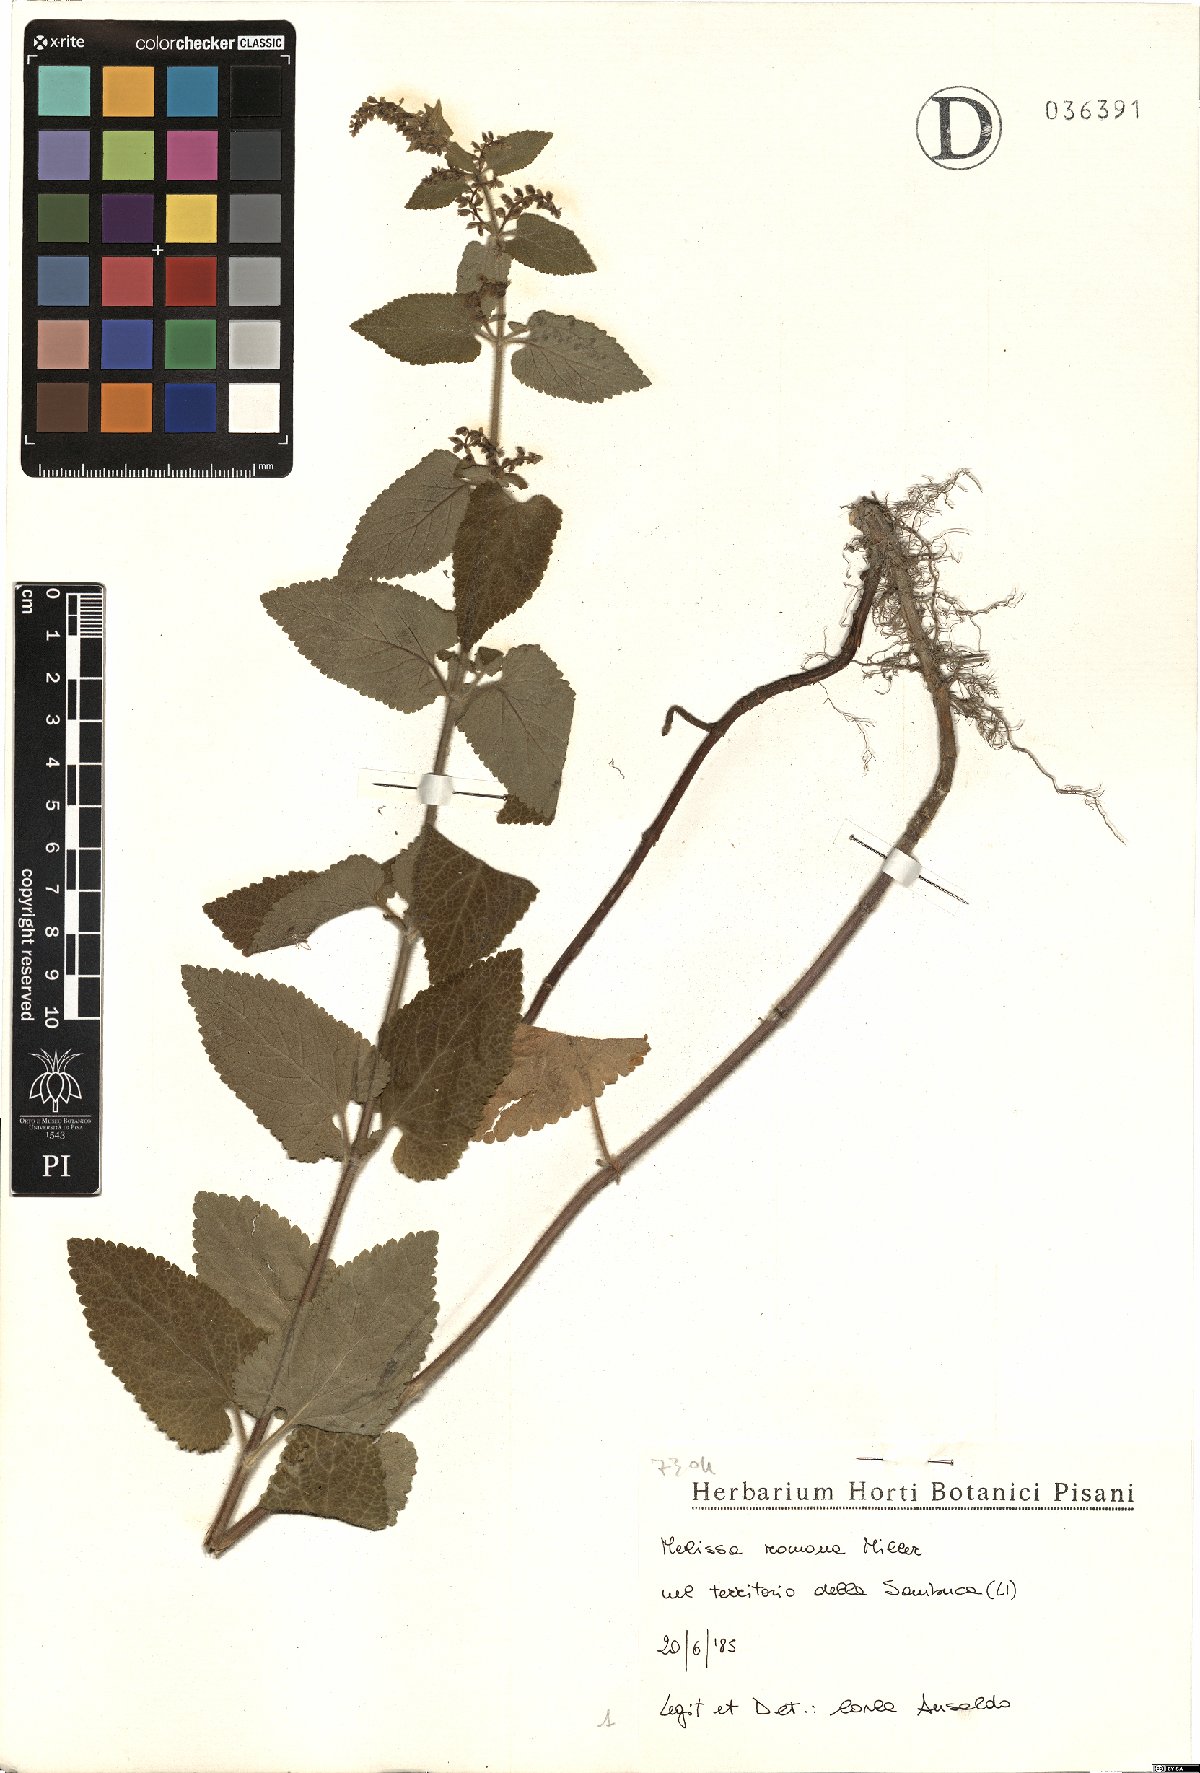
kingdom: Plantae
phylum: Tracheophyta
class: Magnoliopsida
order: Lamiales
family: Lamiaceae
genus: Melissa
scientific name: Melissa officinalis
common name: Balm
